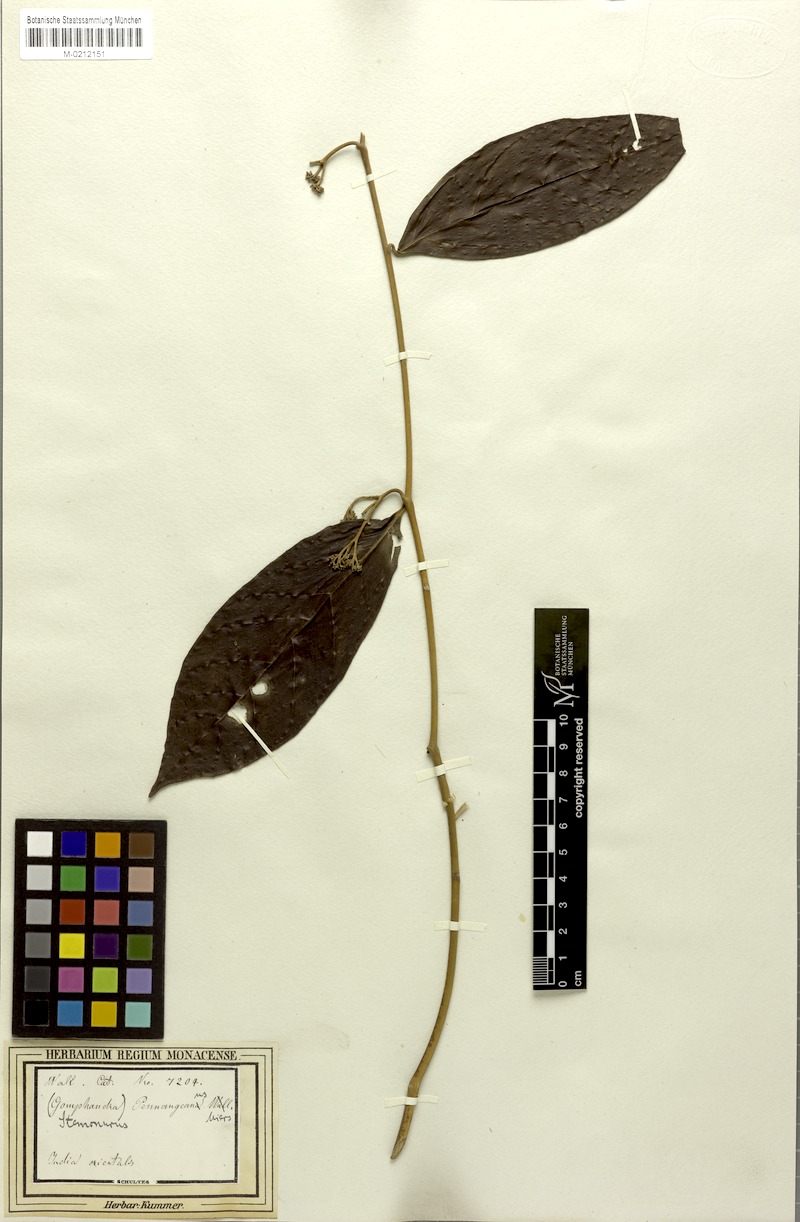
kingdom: Plantae
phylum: Tracheophyta
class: Magnoliopsida
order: Cardiopteridales
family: Stemonuraceae
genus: Gomphandra
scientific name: Gomphandra quadrifida
